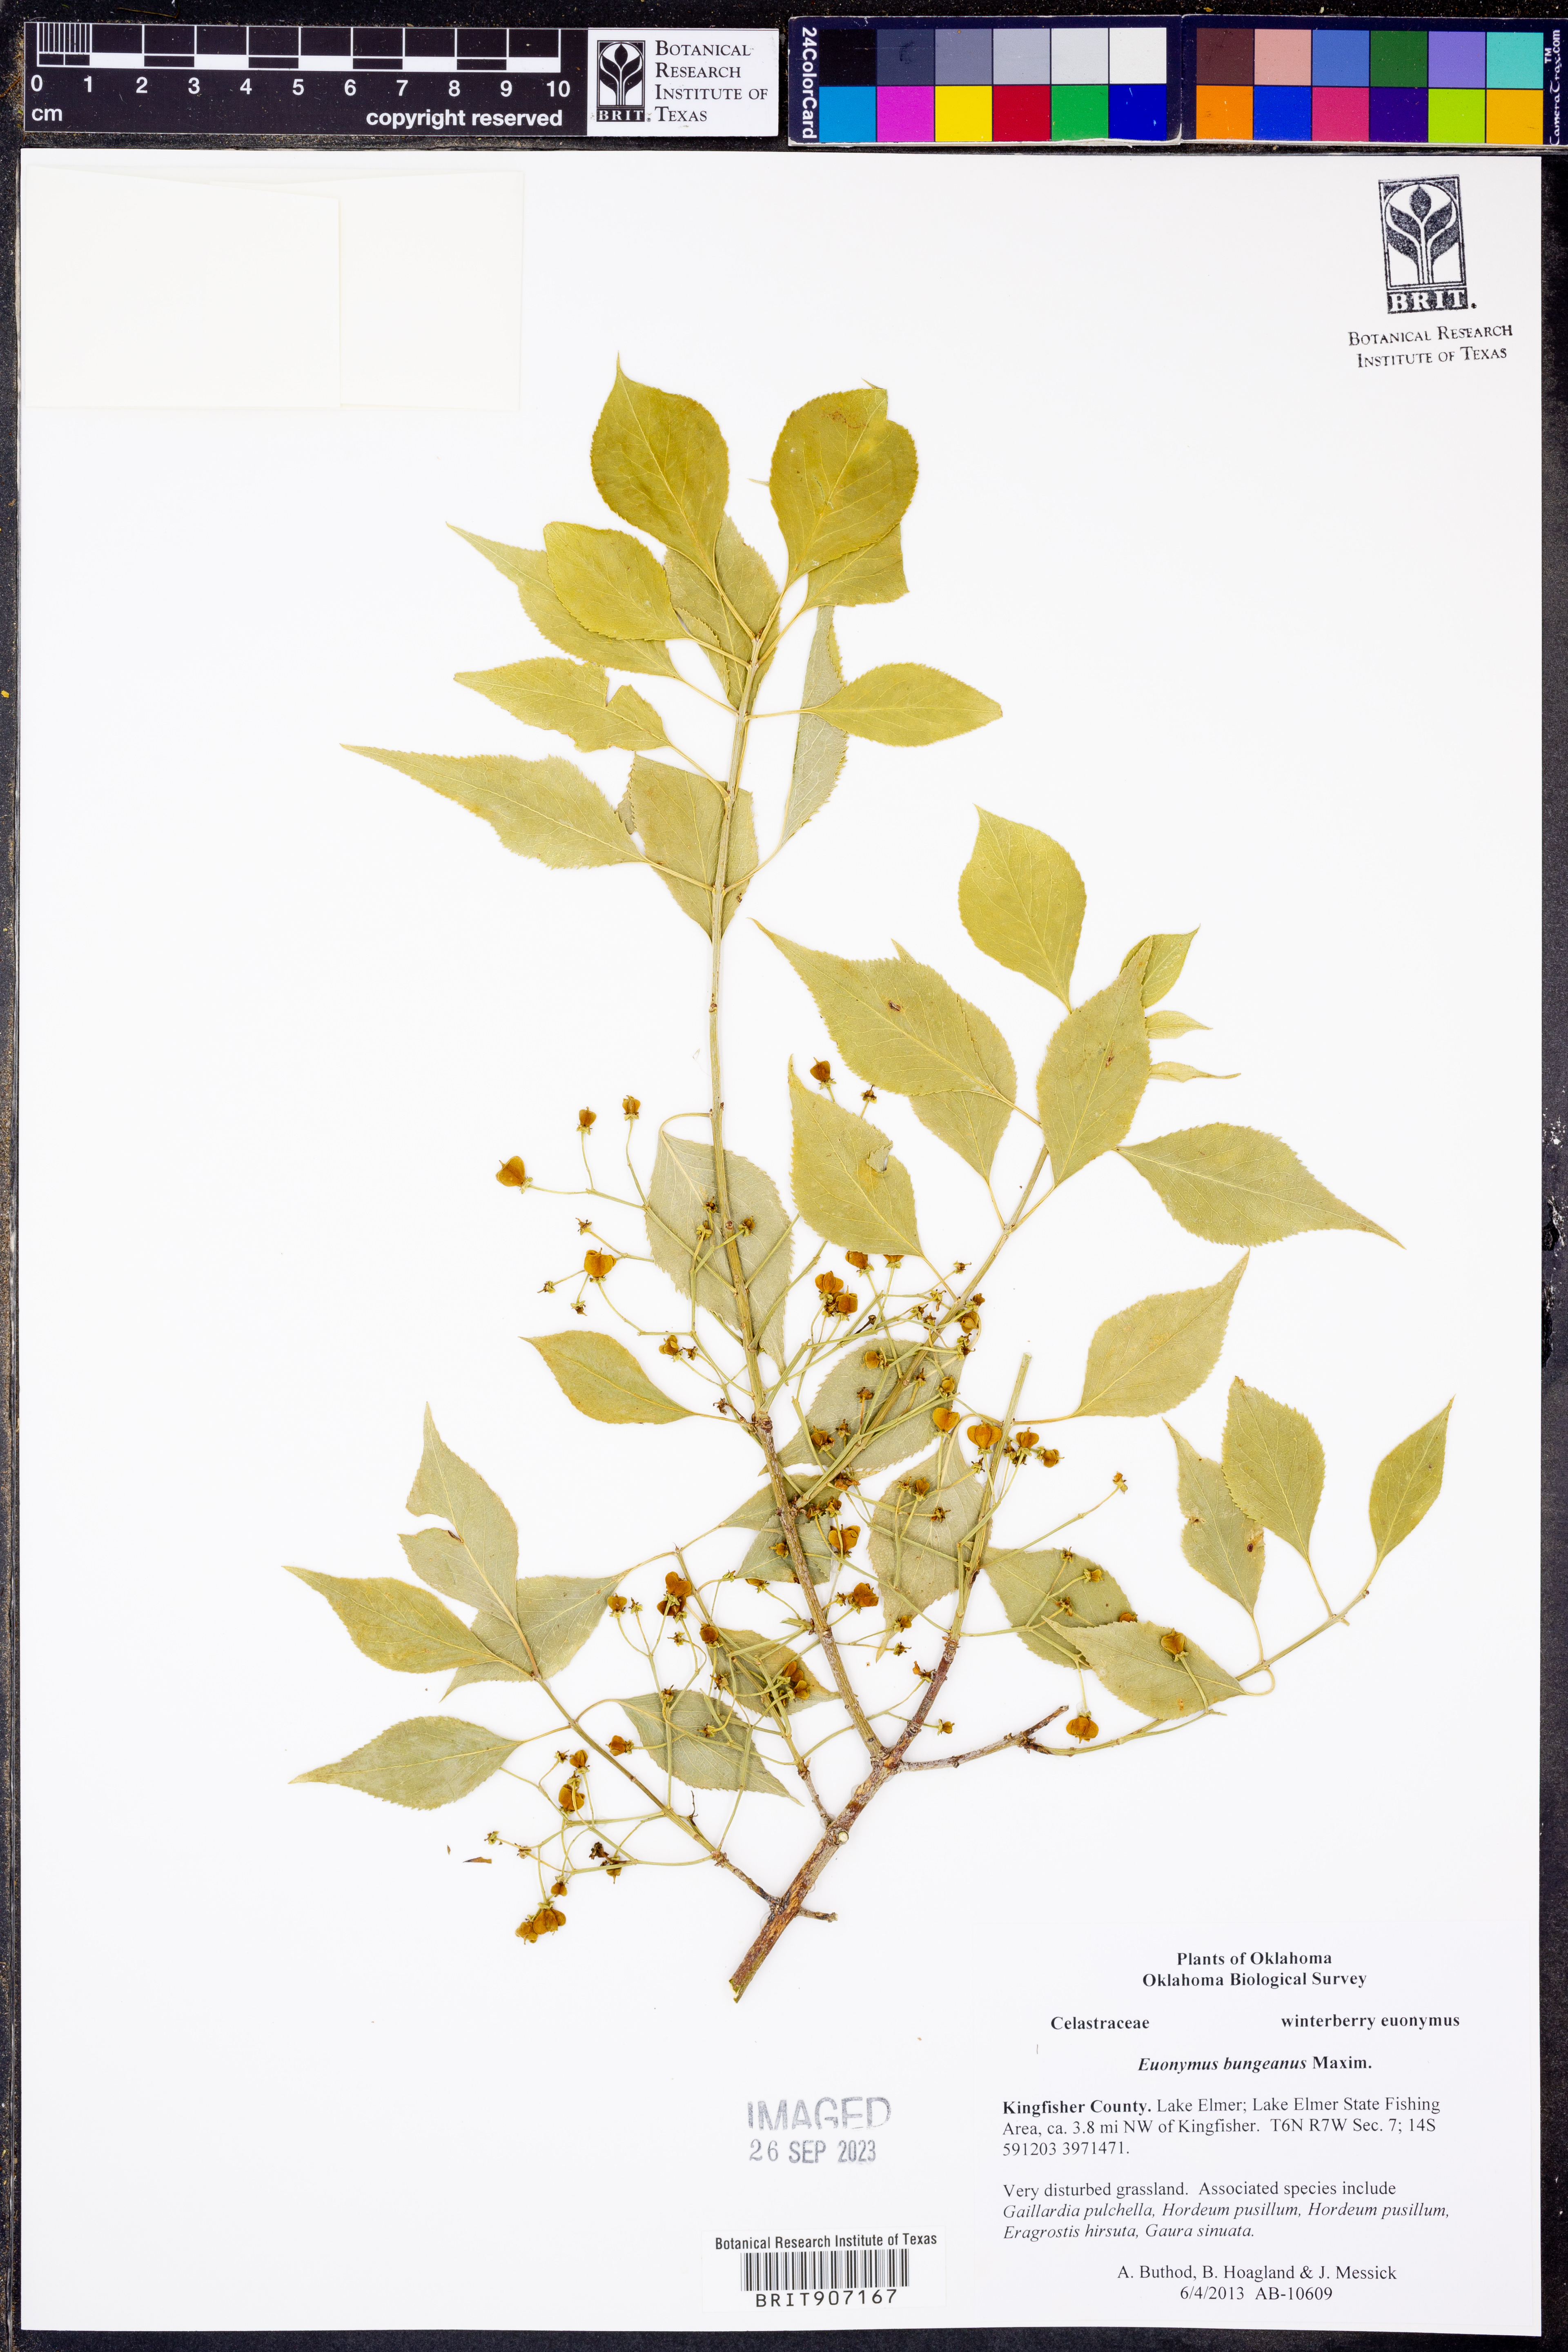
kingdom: Plantae
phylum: Tracheophyta
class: Magnoliopsida
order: Celastrales
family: Celastraceae
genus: Euonymus
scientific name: Euonymus maackii
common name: Hamilton's spindletree
